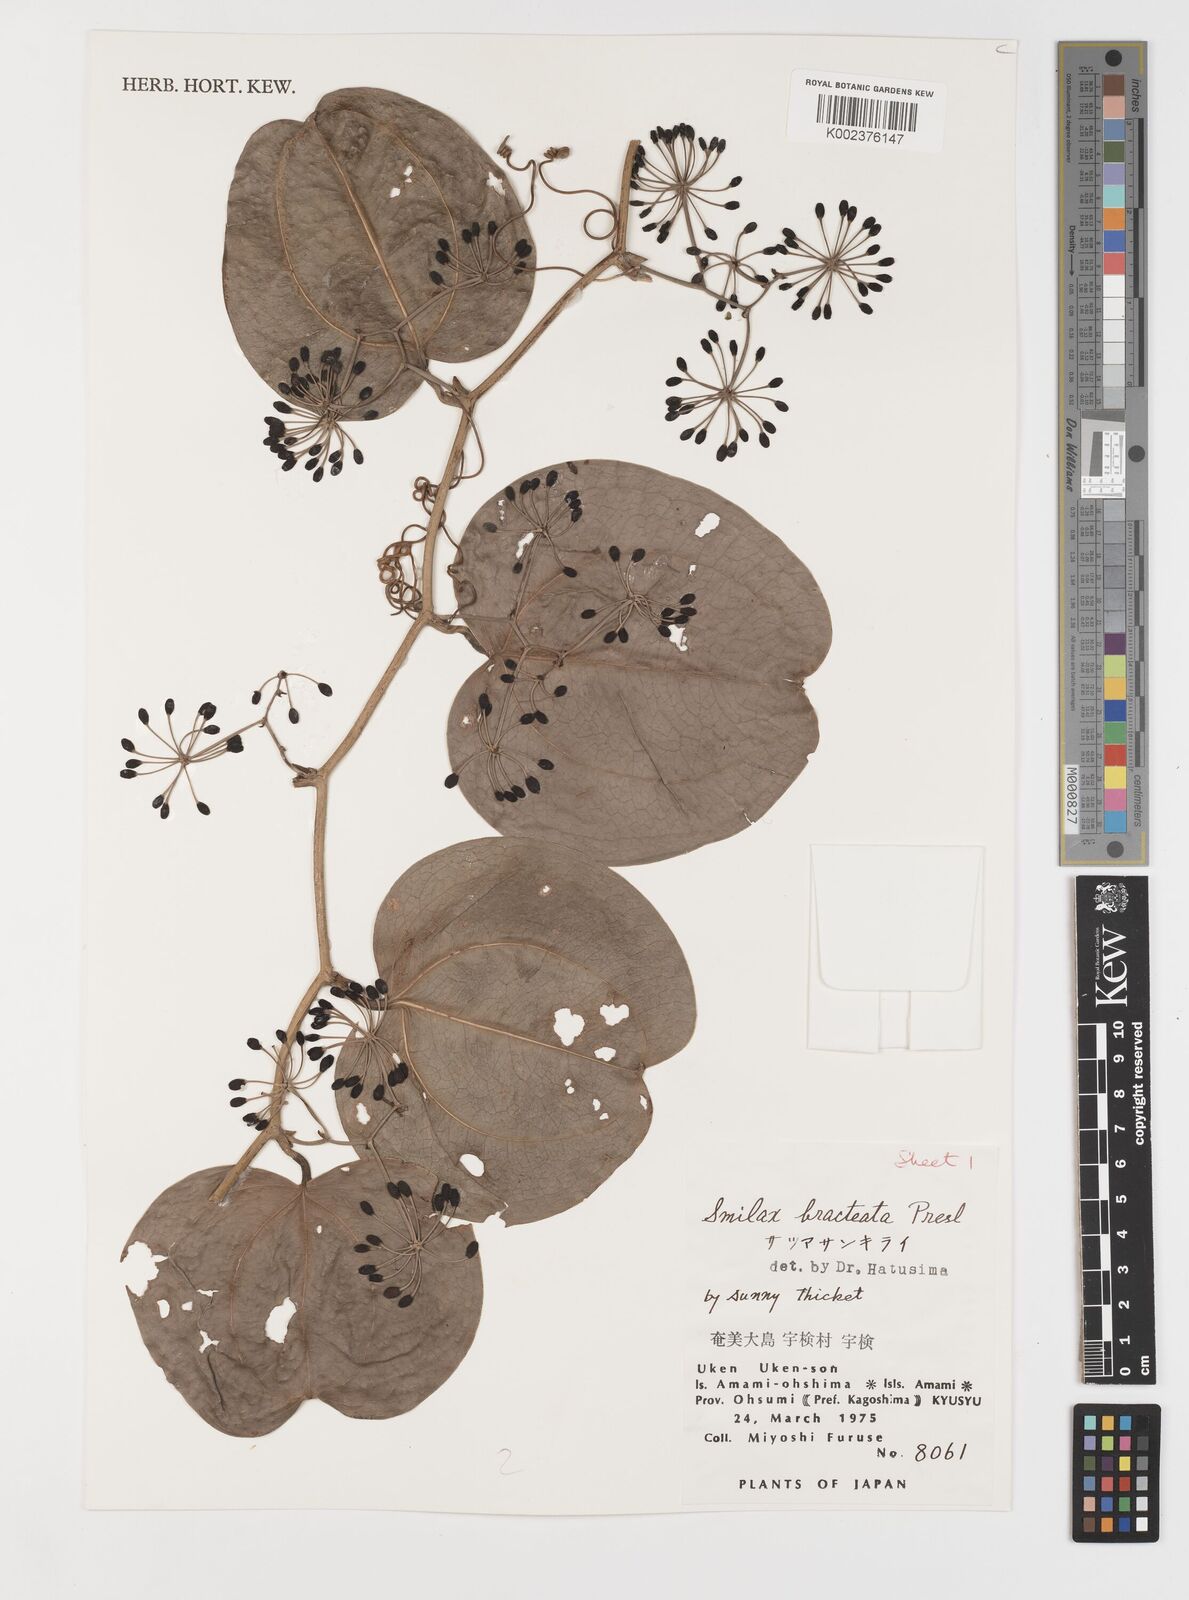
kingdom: Plantae
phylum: Tracheophyta
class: Liliopsida
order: Liliales
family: Smilacaceae
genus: Smilax
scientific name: Smilax bracteata
